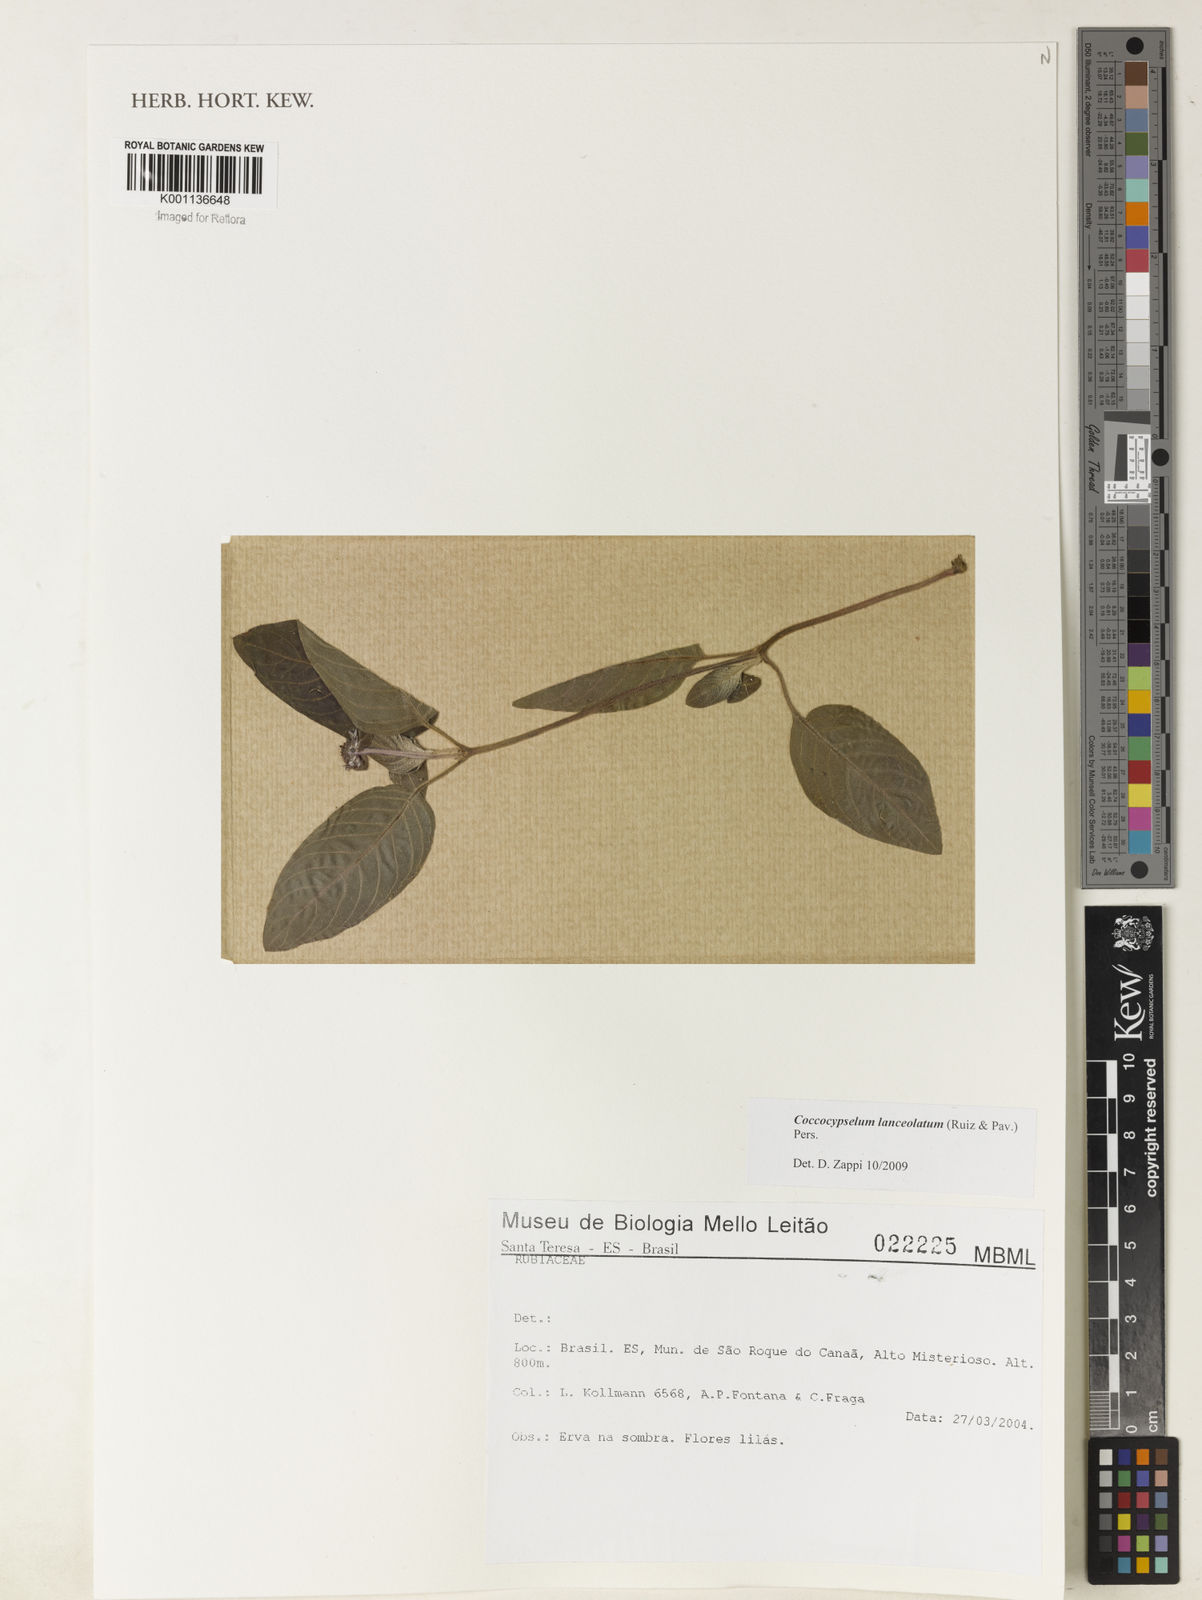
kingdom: Plantae
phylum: Tracheophyta
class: Magnoliopsida
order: Gentianales
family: Rubiaceae
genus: Coccocypselum
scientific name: Coccocypselum lanceolatum
